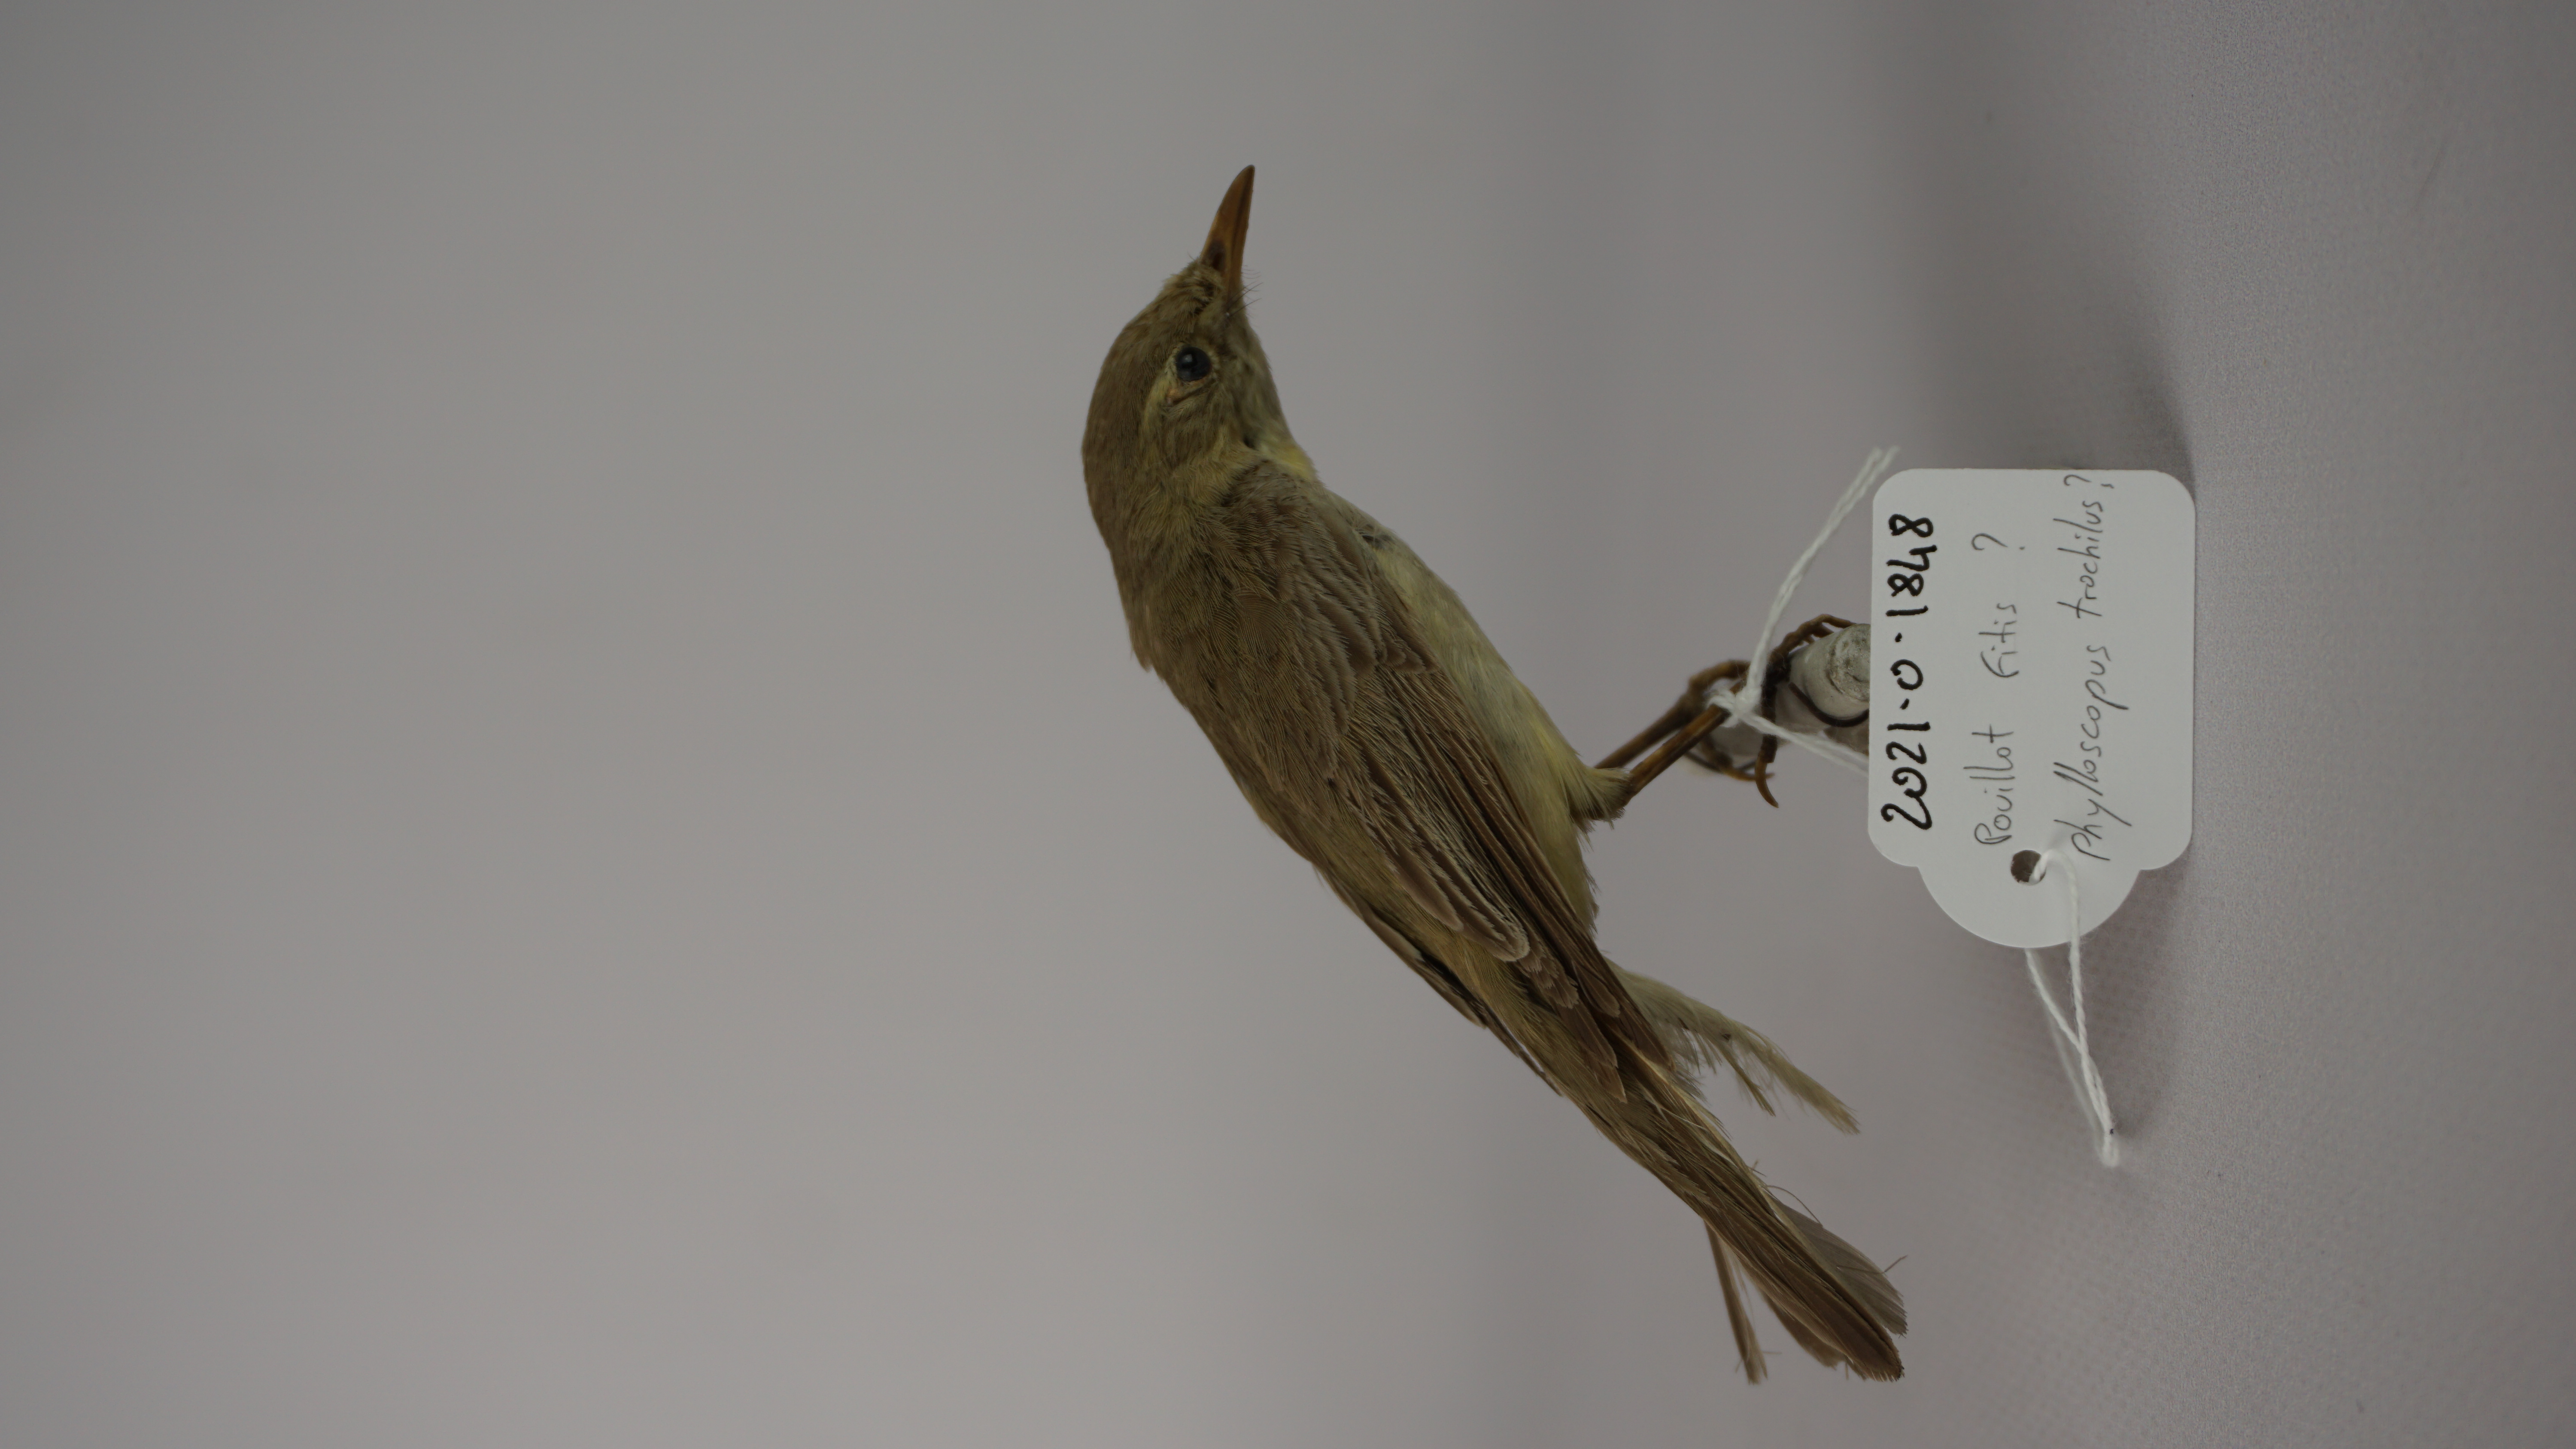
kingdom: Animalia
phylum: Chordata
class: Aves
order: Passeriformes
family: Phylloscopidae
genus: Phylloscopus
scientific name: Phylloscopus trochilus
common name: Willow warbler
